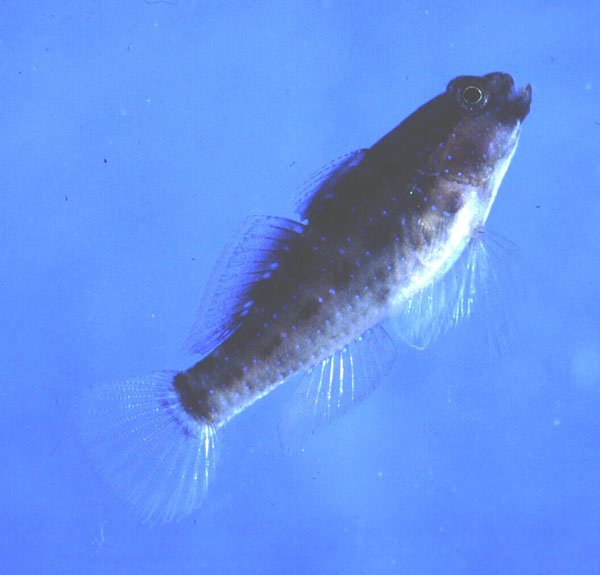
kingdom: Animalia
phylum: Chordata
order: Perciformes
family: Gobiidae
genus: Asterropteryx
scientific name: Asterropteryx semipunctata
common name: Starry goby
